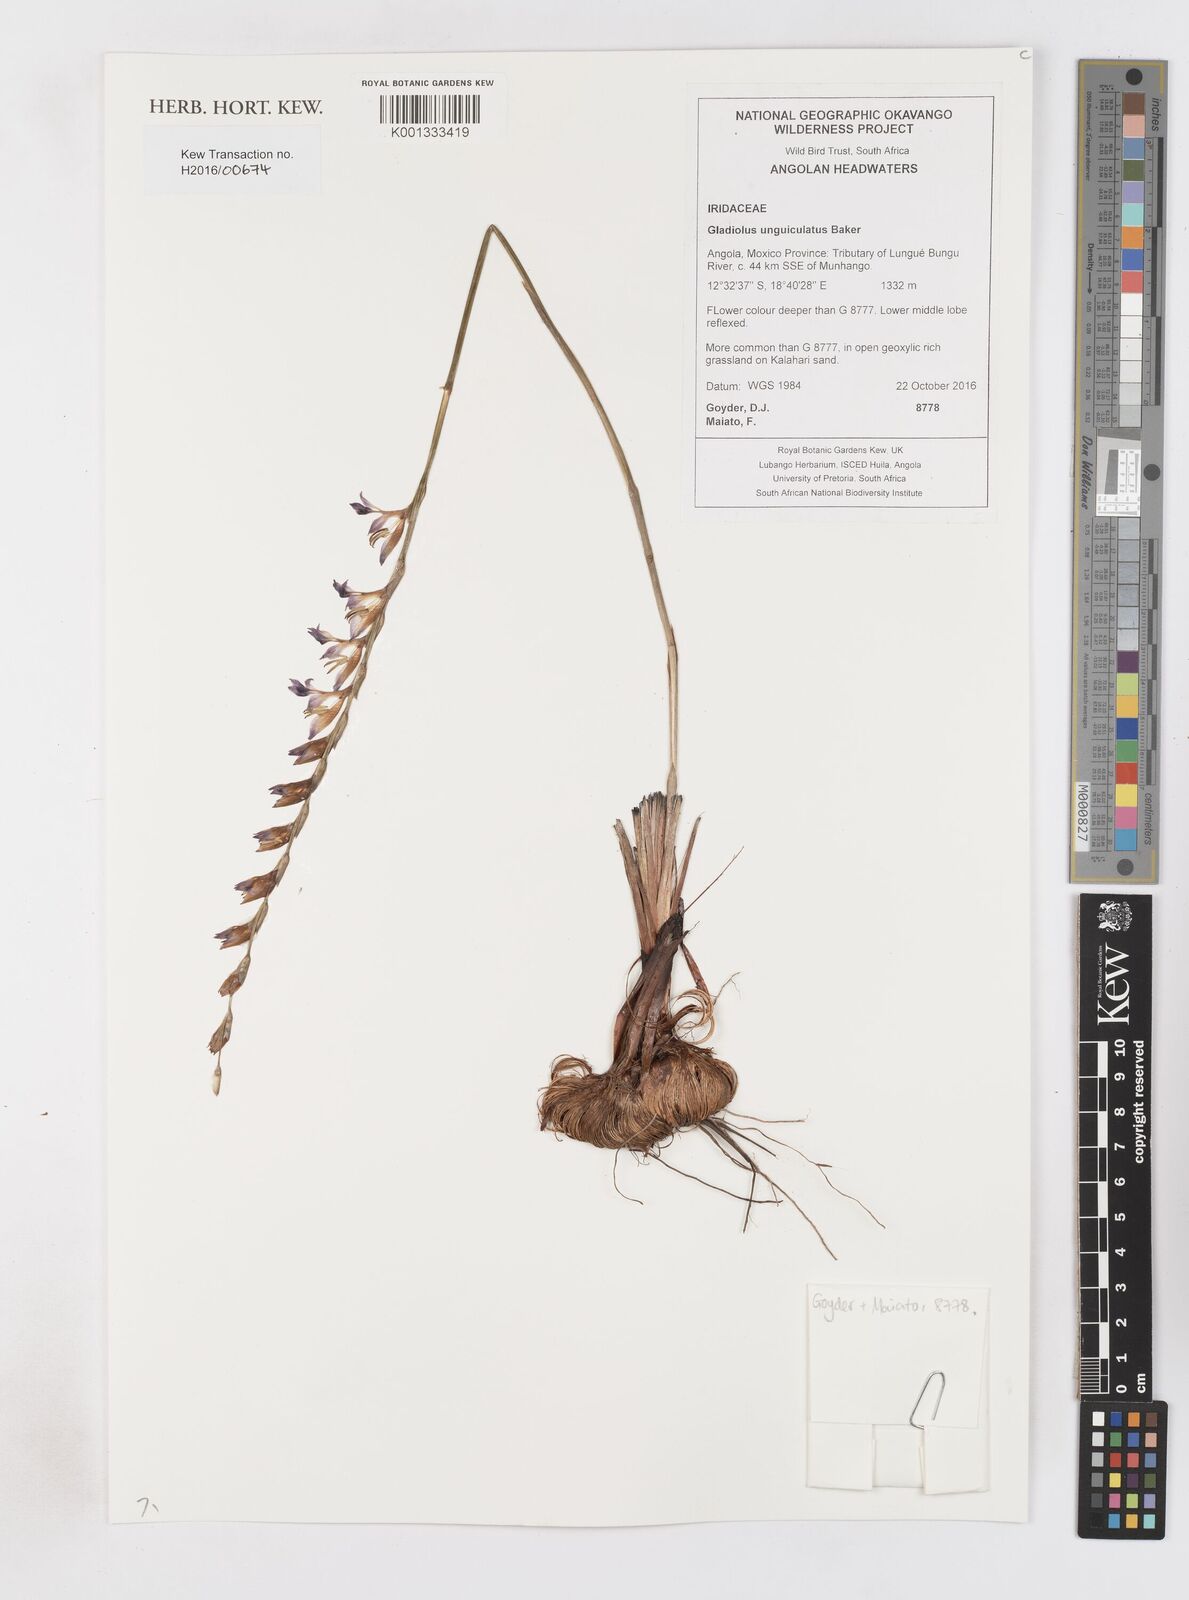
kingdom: Plantae
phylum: Tracheophyta
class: Liliopsida
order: Asparagales
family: Iridaceae
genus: Gladiolus
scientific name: Gladiolus unguiculatus
